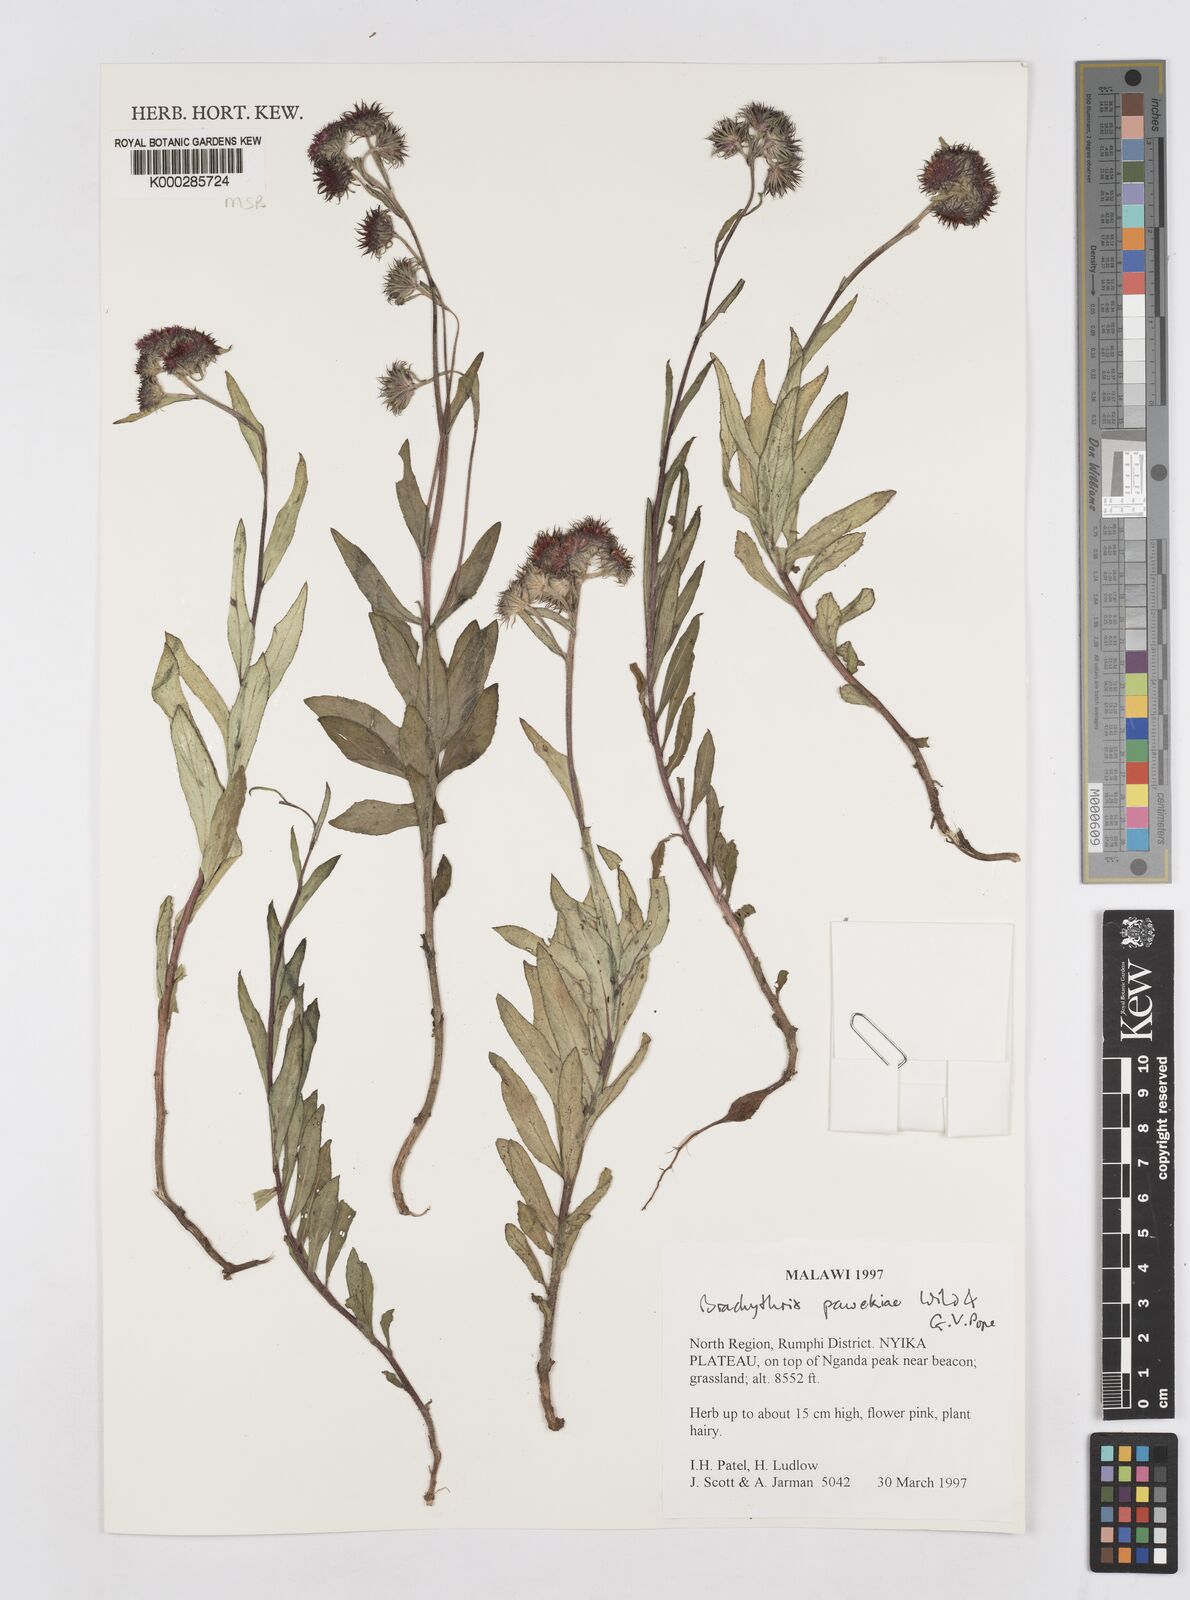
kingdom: Plantae
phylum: Tracheophyta
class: Magnoliopsida
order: Asterales
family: Asteraceae
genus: Brachythrix
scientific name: Brachythrix pawekiae
